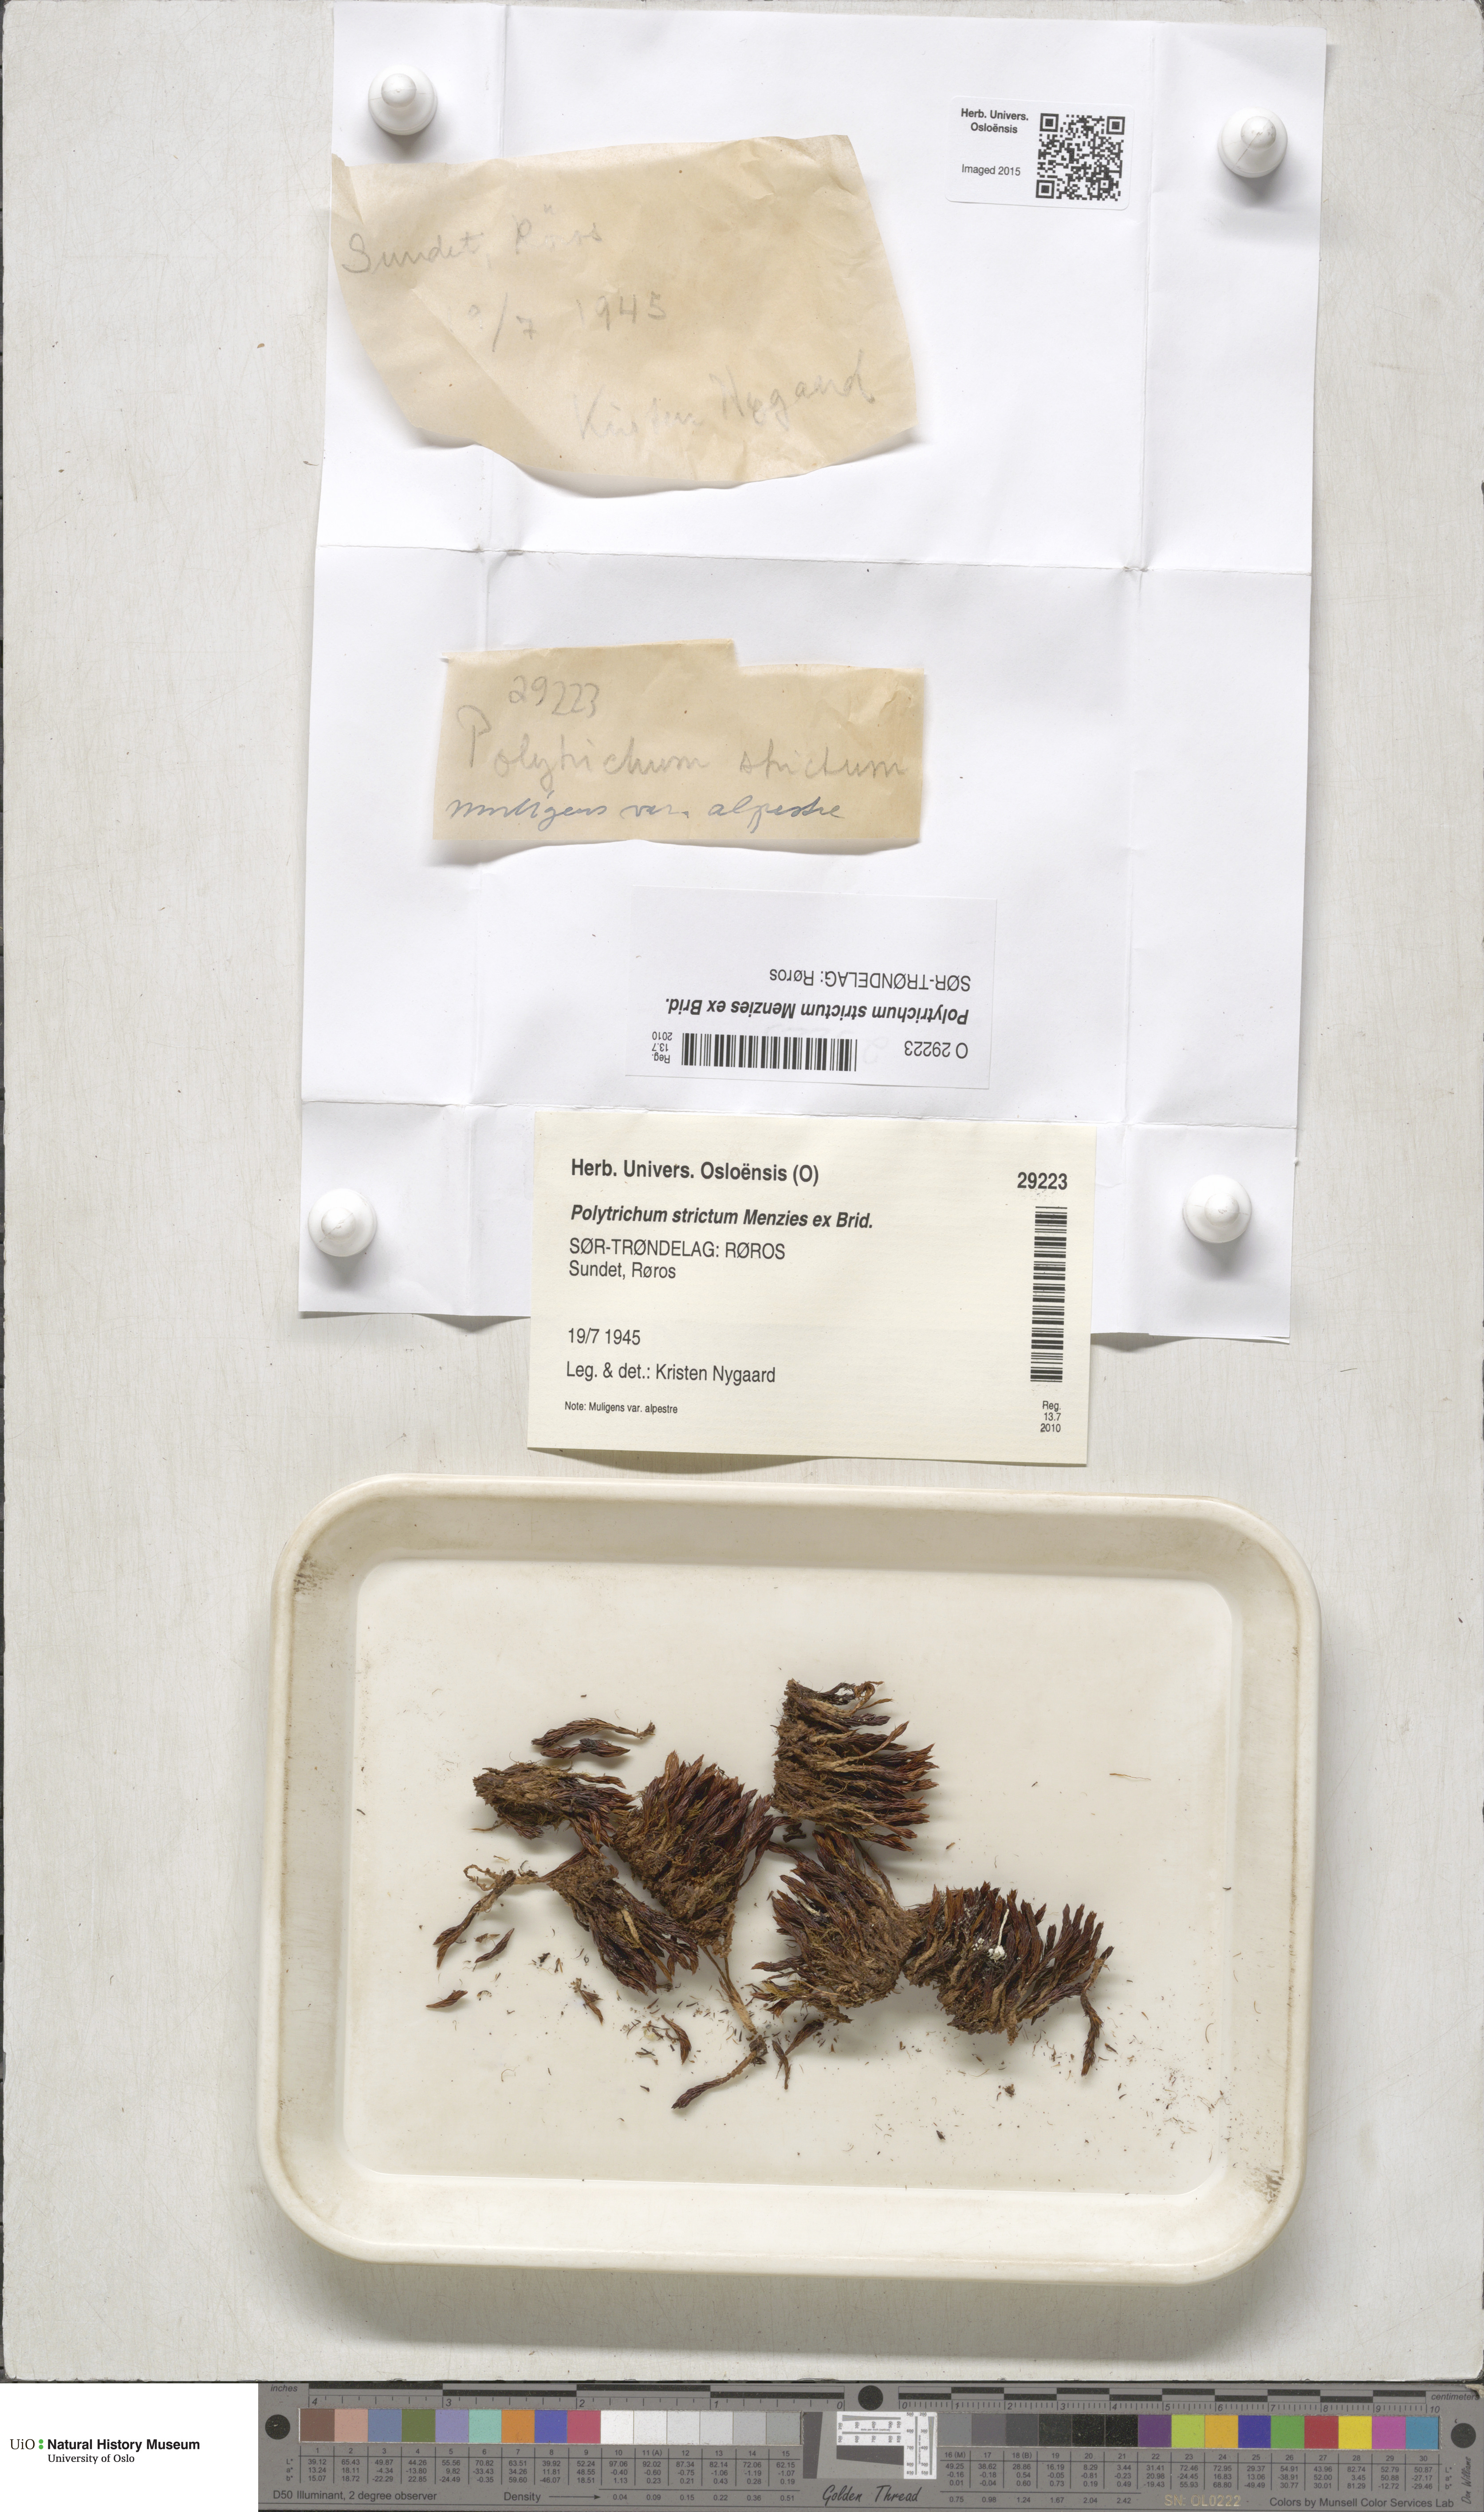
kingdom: Plantae
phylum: Bryophyta
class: Polytrichopsida
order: Polytrichales
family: Polytrichaceae
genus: Polytrichum
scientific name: Polytrichum strictum
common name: Bog haircap moss
